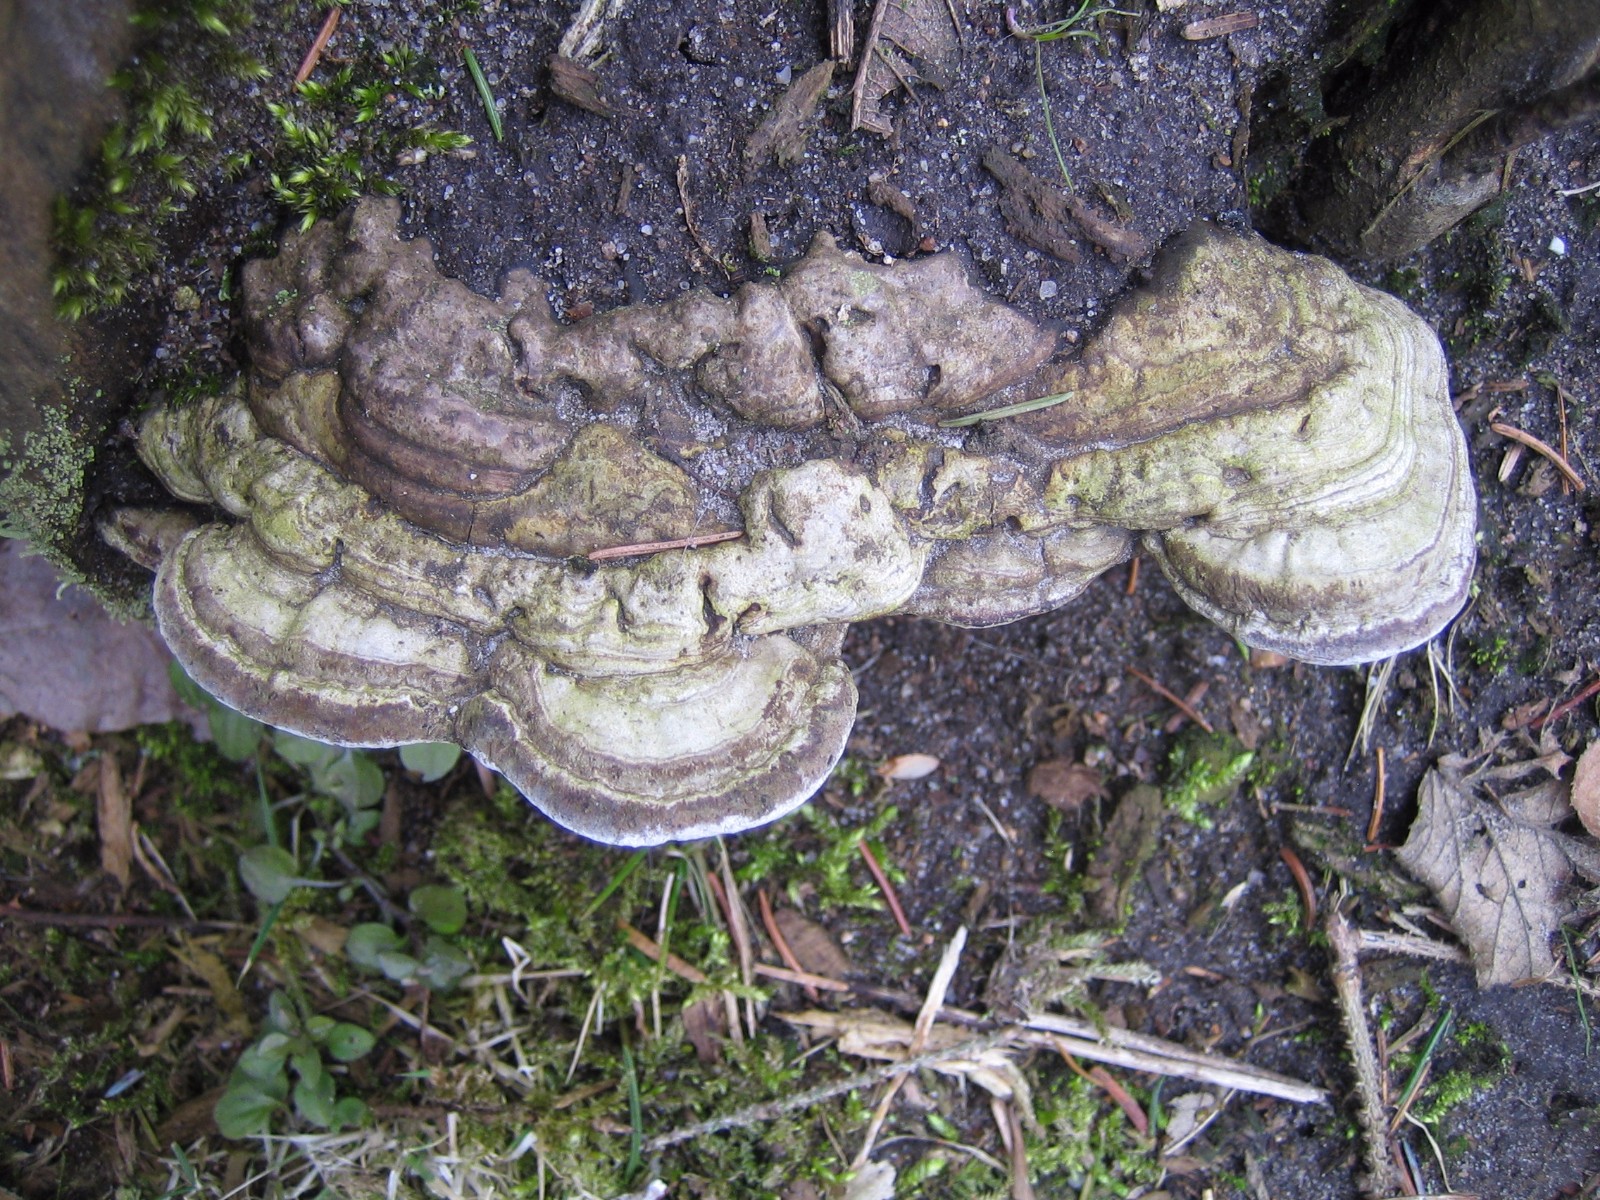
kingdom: Fungi
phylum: Basidiomycota
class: Agaricomycetes
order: Polyporales
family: Polyporaceae
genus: Ganoderma
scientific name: Ganoderma applanatum
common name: flad lakporesvamp
